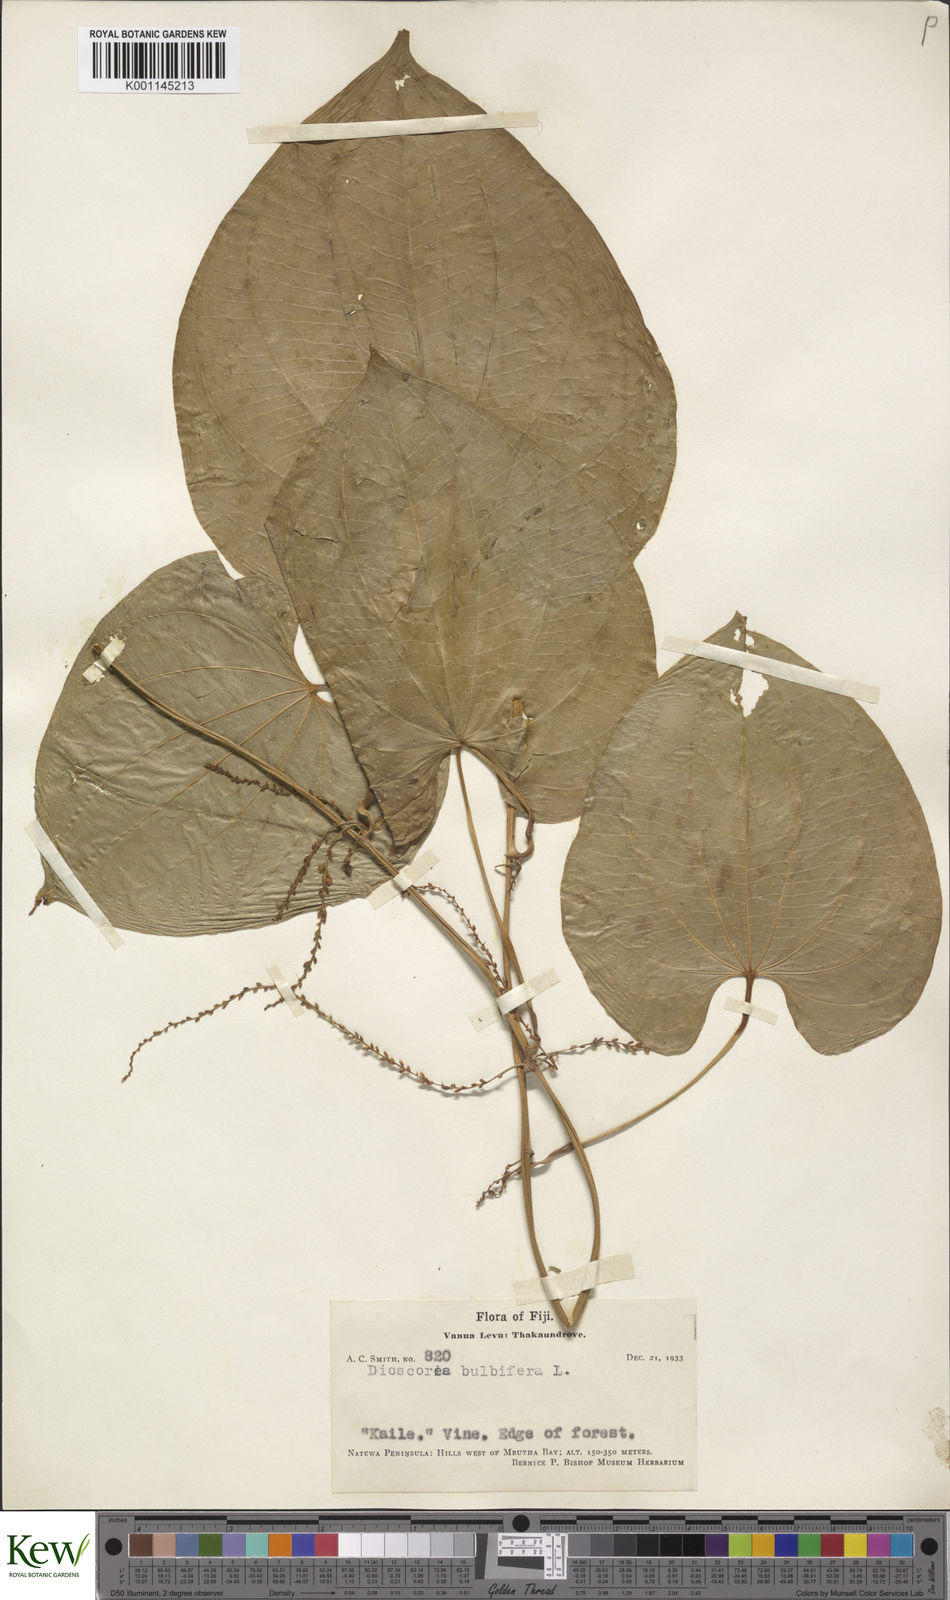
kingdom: Plantae
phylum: Tracheophyta
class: Liliopsida
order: Dioscoreales
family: Dioscoreaceae
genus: Dioscorea
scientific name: Dioscorea bulbifera
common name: Air yam
